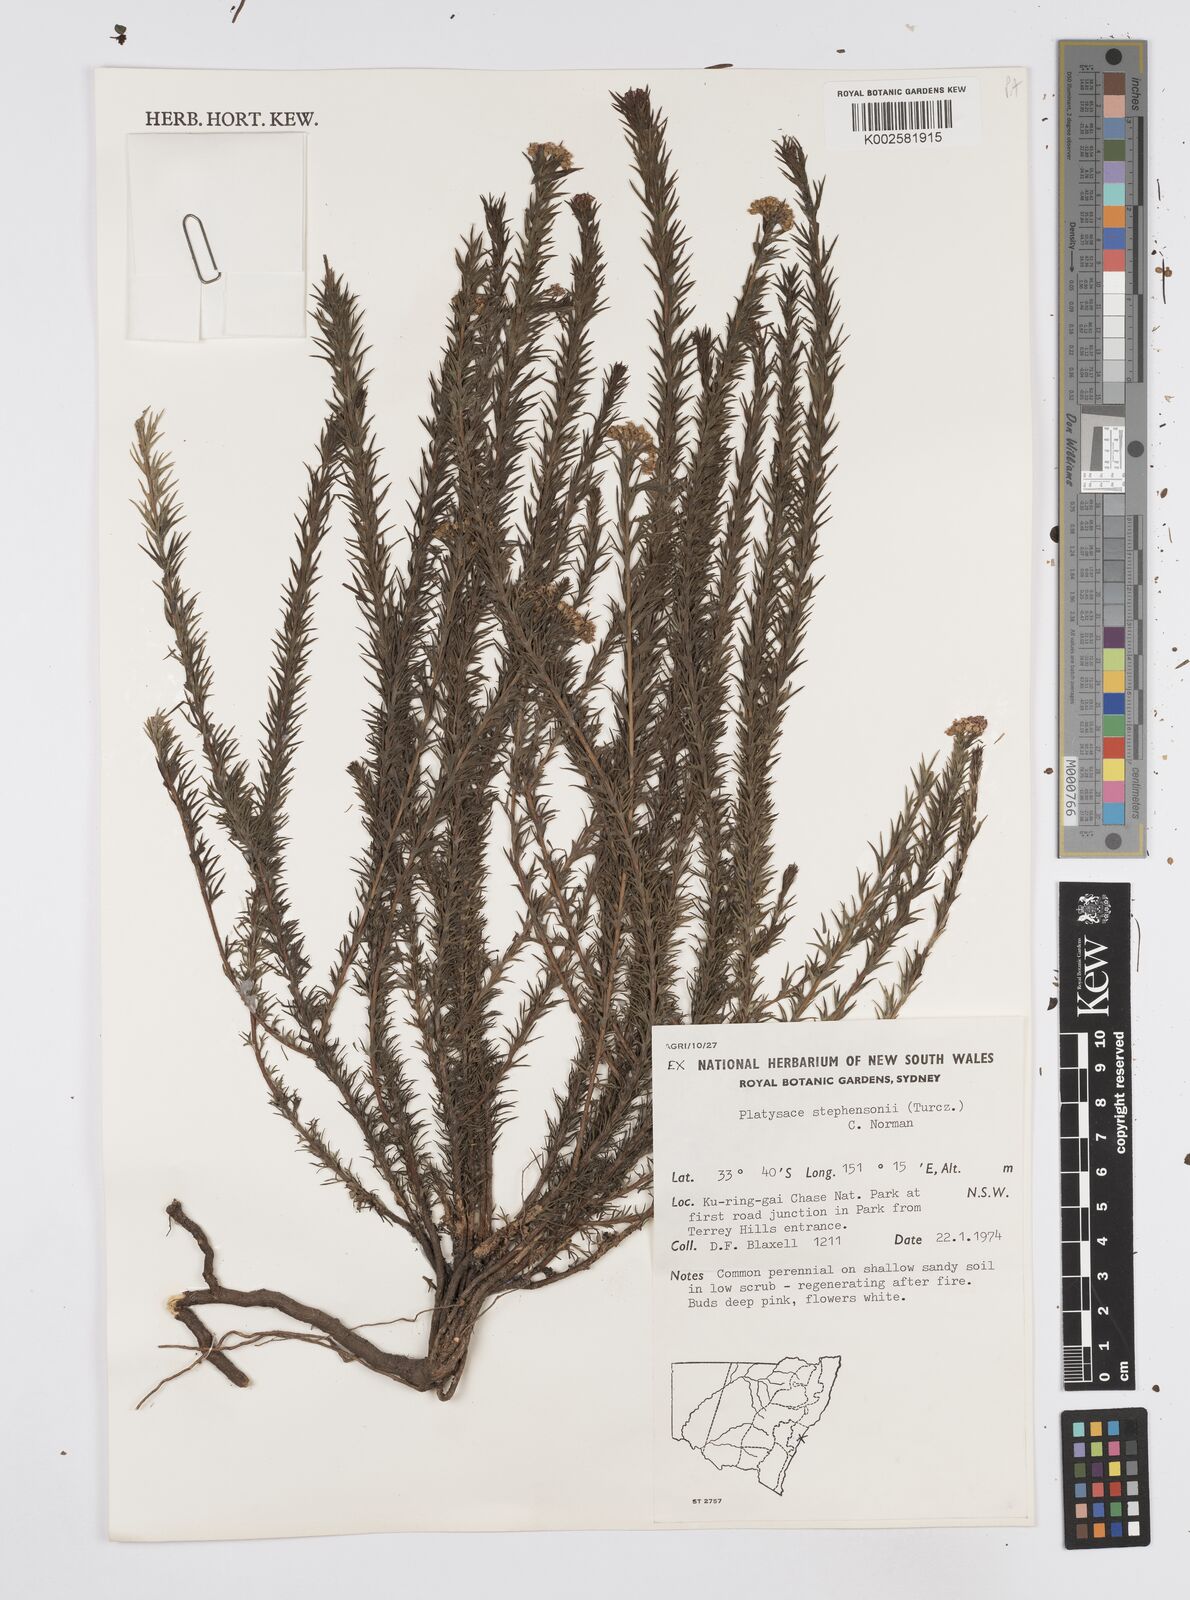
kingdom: Plantae
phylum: Tracheophyta
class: Magnoliopsida
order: Apiales
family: Apiaceae
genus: Platysace
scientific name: Platysace stephensonii
